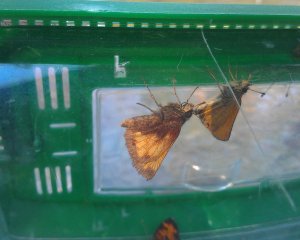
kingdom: Animalia
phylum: Arthropoda
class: Insecta
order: Lepidoptera
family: Hesperiidae
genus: Thymelicus
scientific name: Thymelicus lineola
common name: European Skipper
